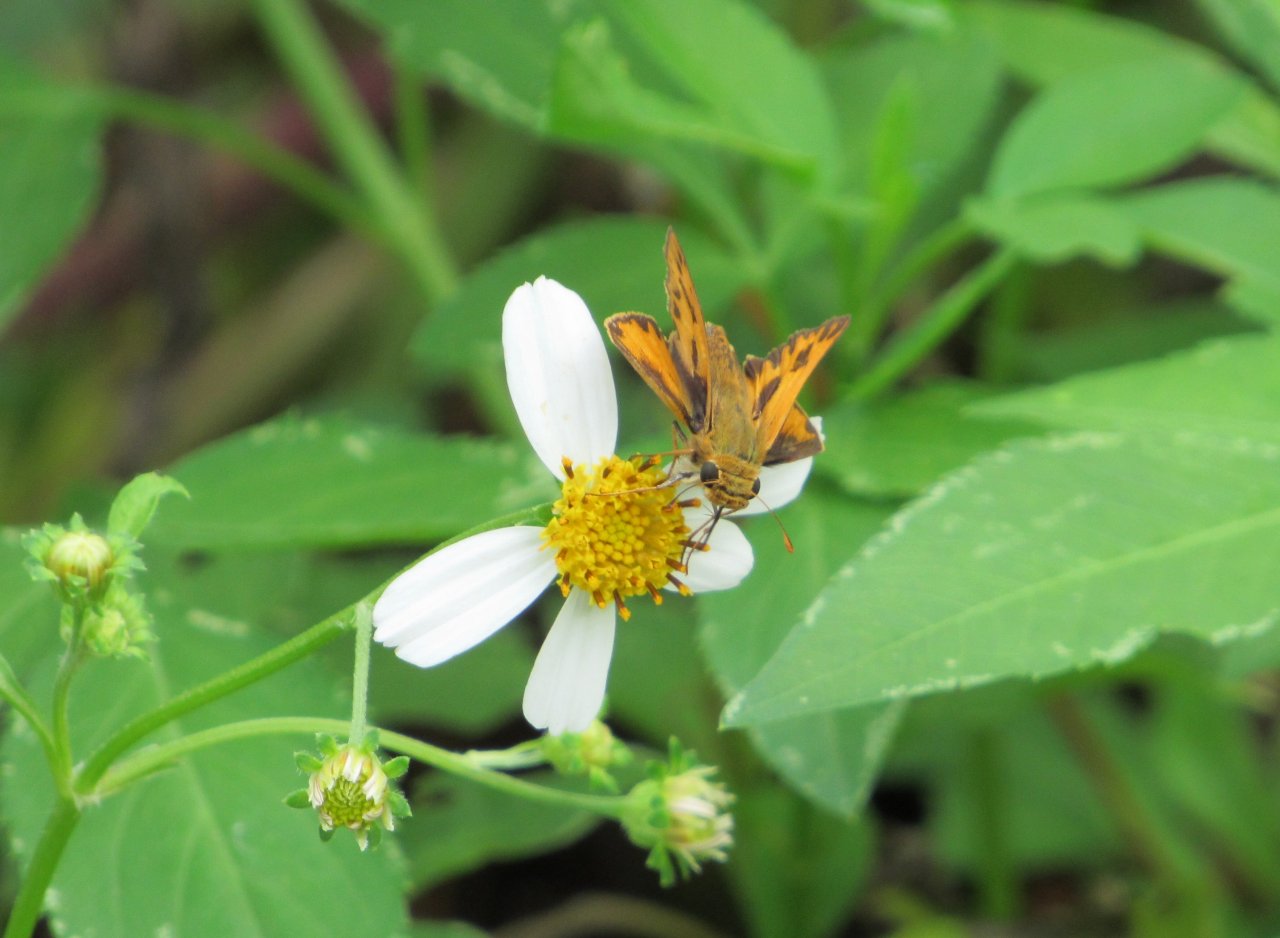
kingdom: Animalia
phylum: Arthropoda
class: Insecta
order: Lepidoptera
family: Hesperiidae
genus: Hylephila
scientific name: Hylephila phyleus
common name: Fiery Skipper
